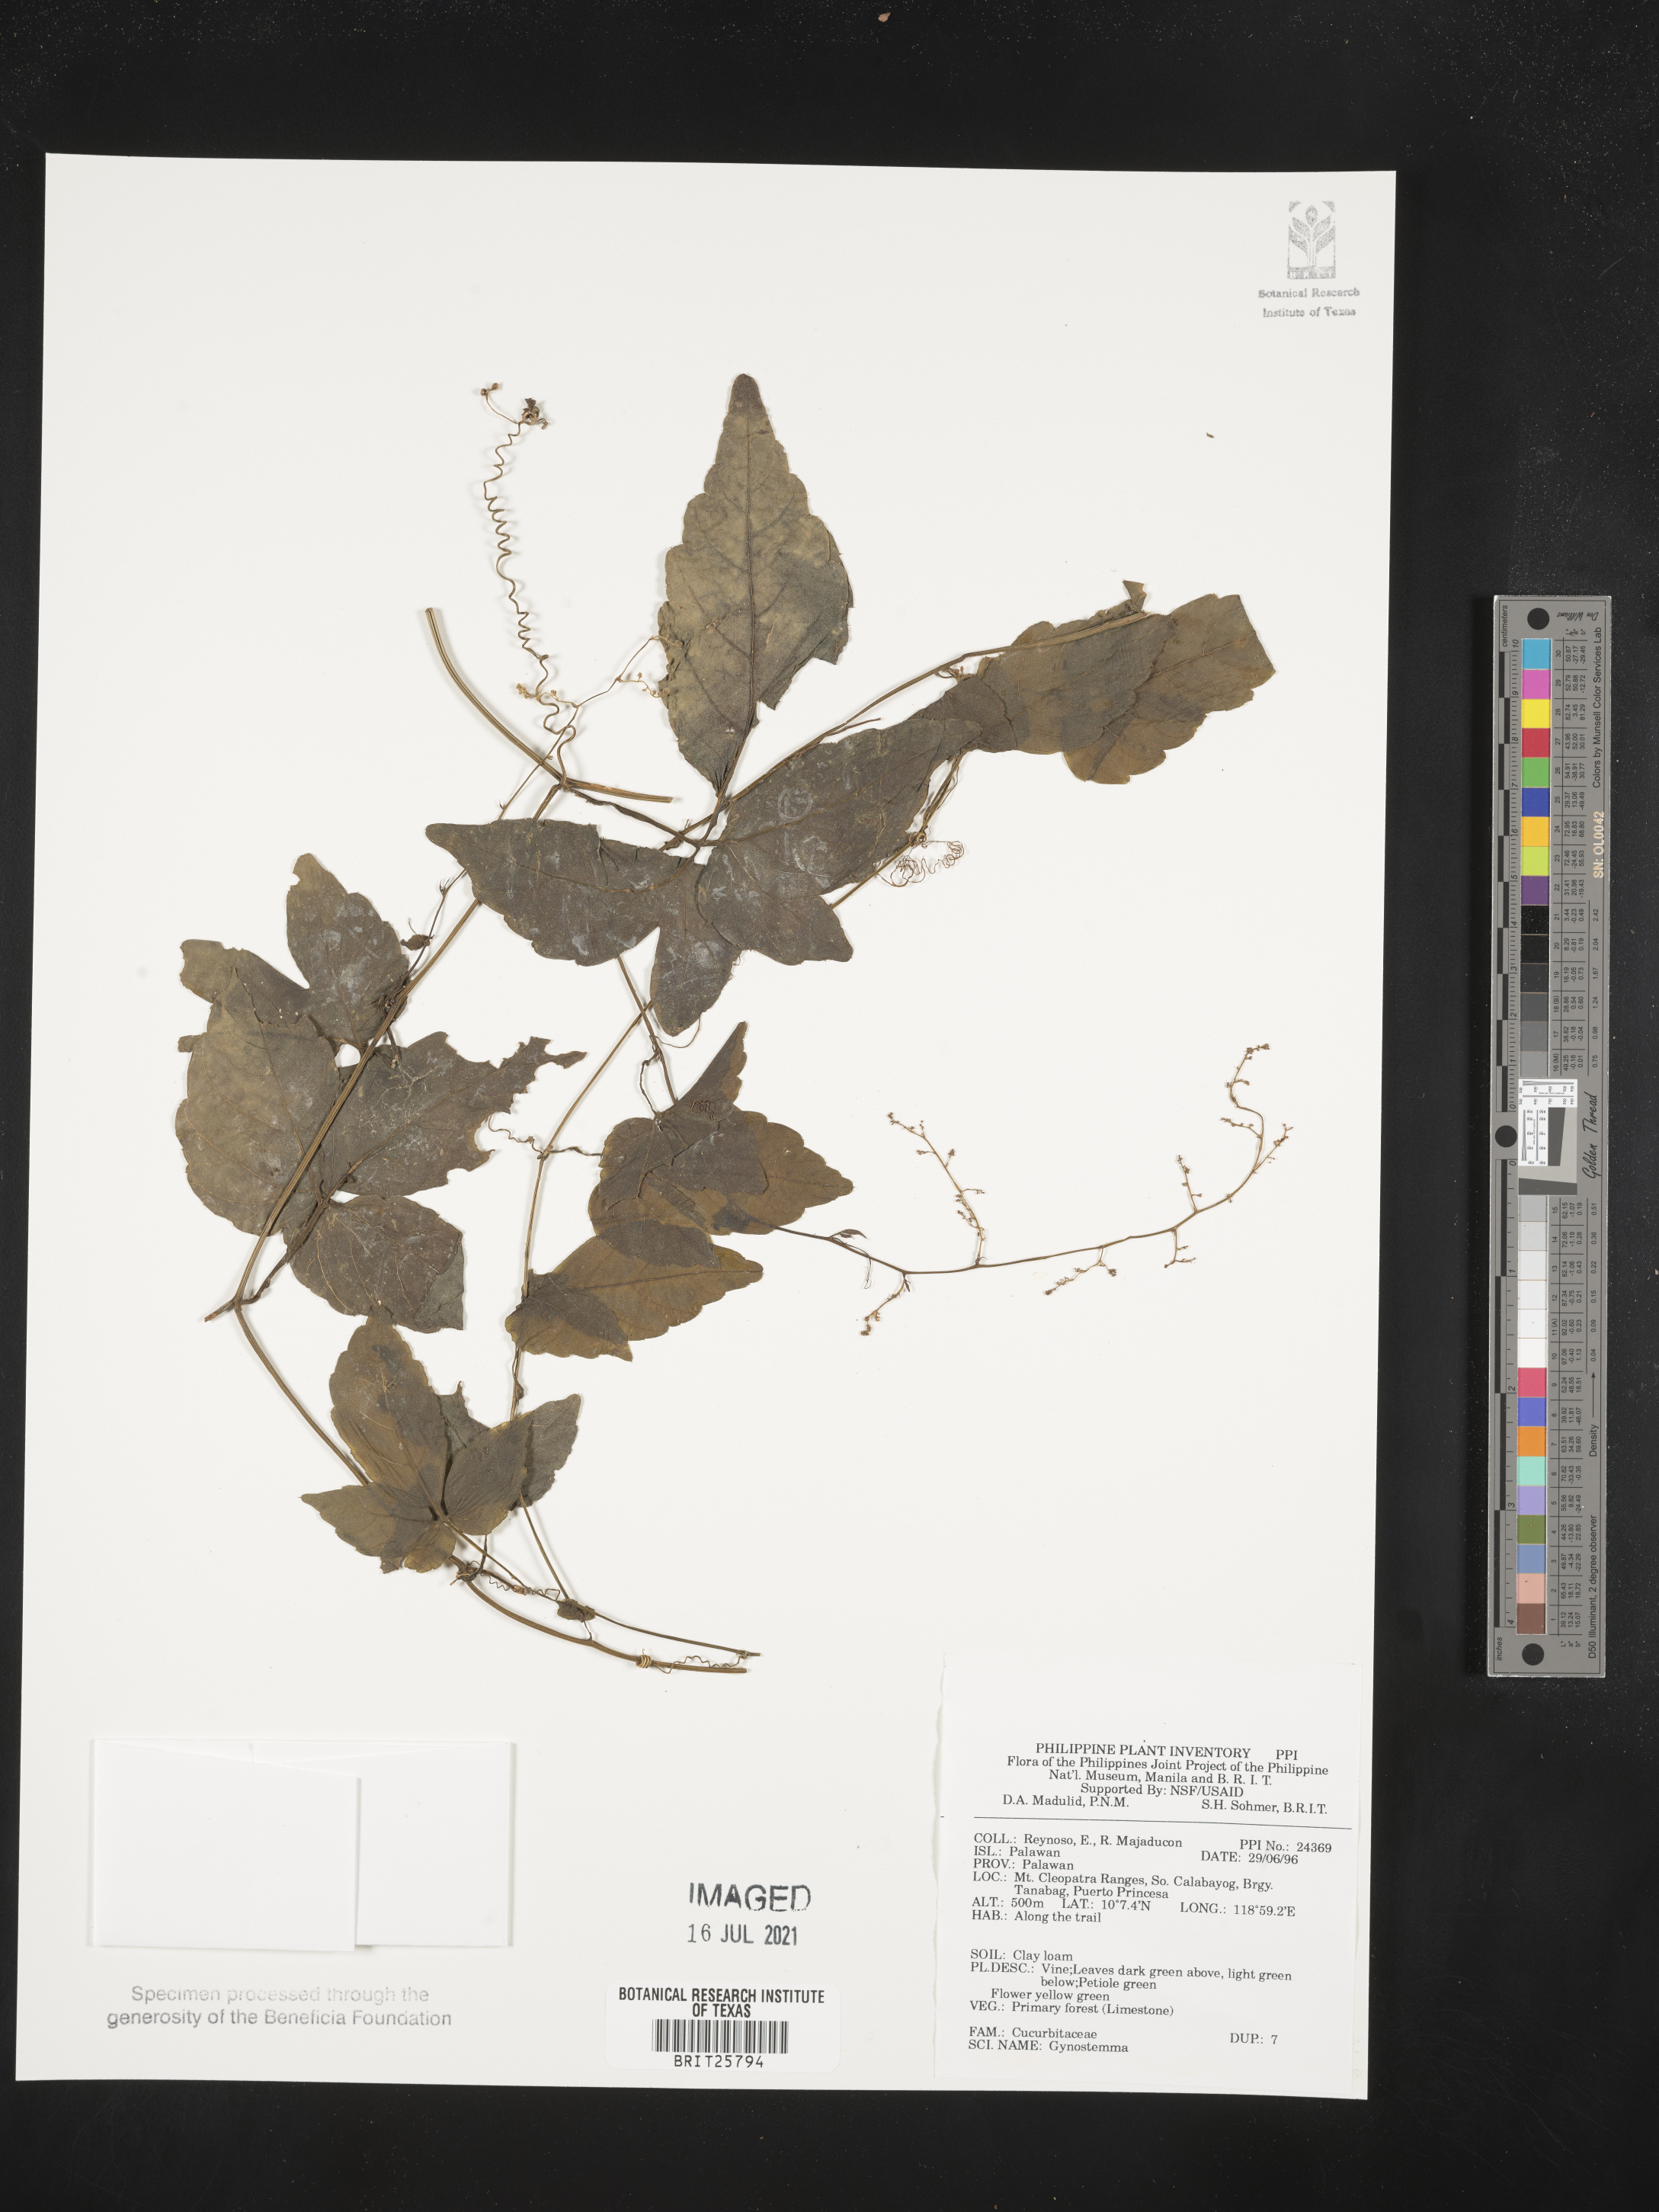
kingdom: Plantae
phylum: Tracheophyta
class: Magnoliopsida
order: Cucurbitales
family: Cucurbitaceae
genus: Gynostemma
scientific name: Gynostemma
